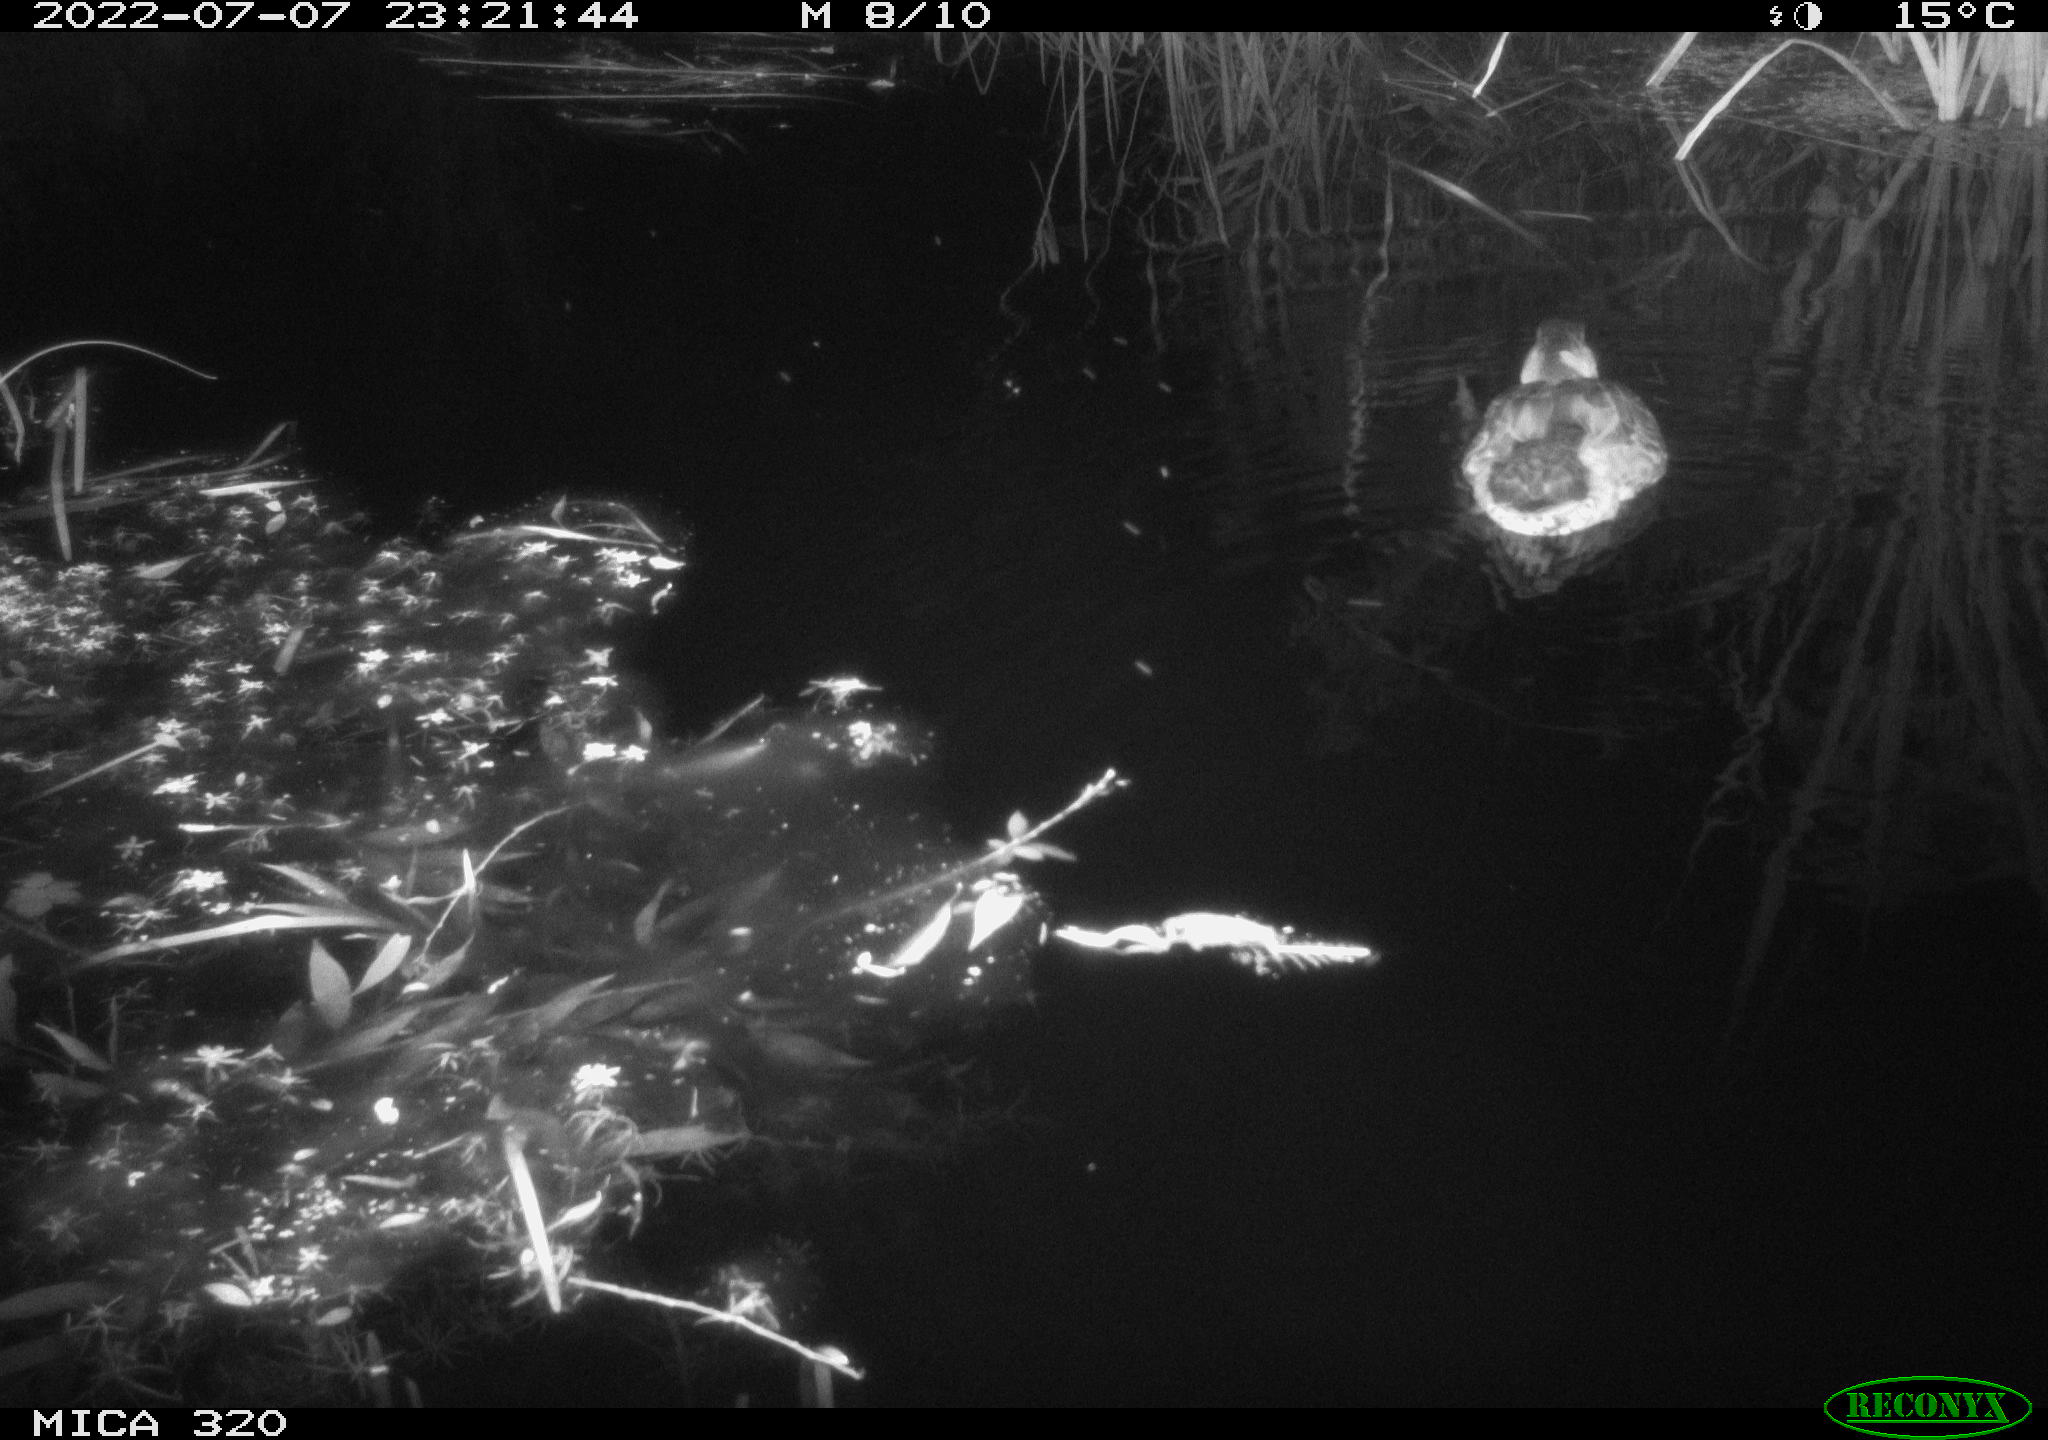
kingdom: Animalia
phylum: Chordata
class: Aves
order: Anseriformes
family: Anatidae
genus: Anas
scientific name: Anas platyrhynchos
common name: Mallard
